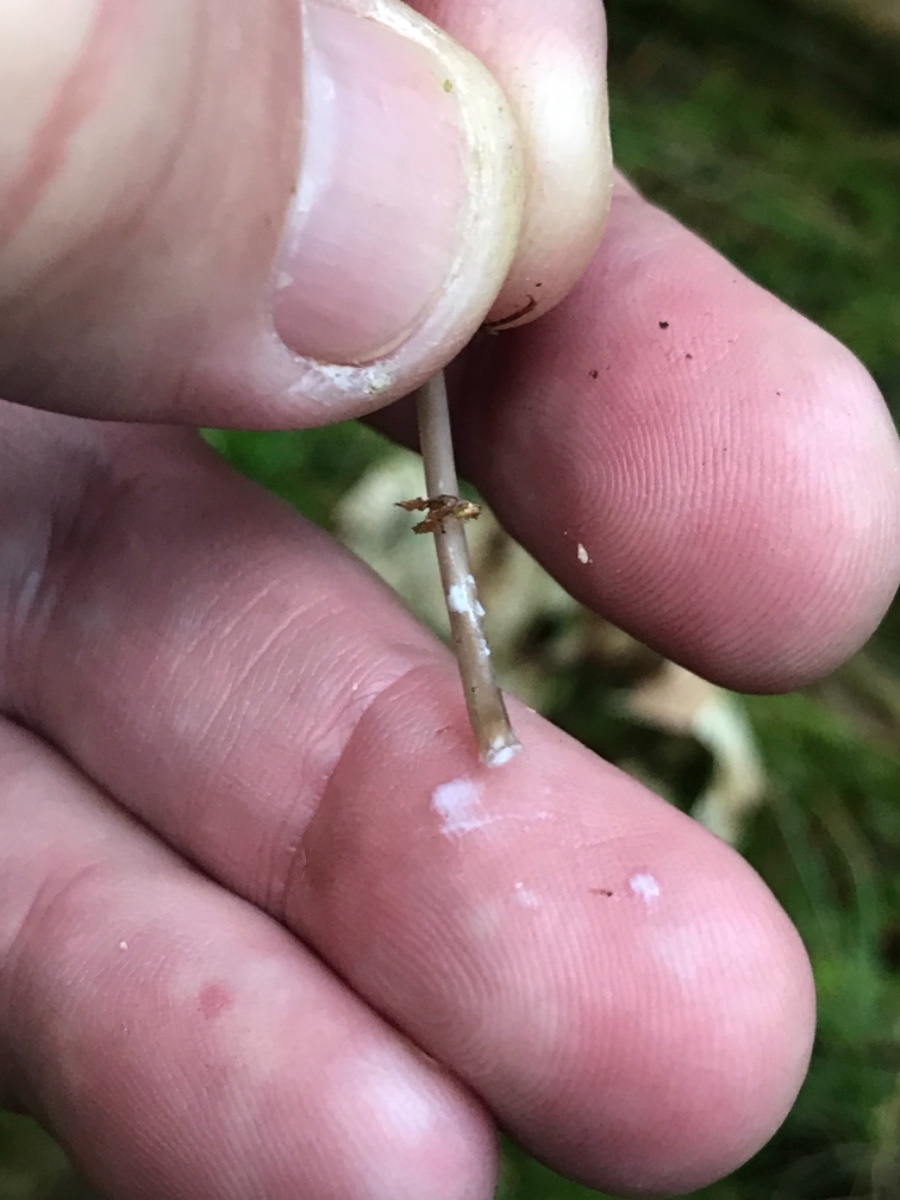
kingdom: Fungi
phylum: Basidiomycota
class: Agaricomycetes
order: Agaricales
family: Mycenaceae
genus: Mycena
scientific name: Mycena galopus
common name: hvidmælket huesvamp
